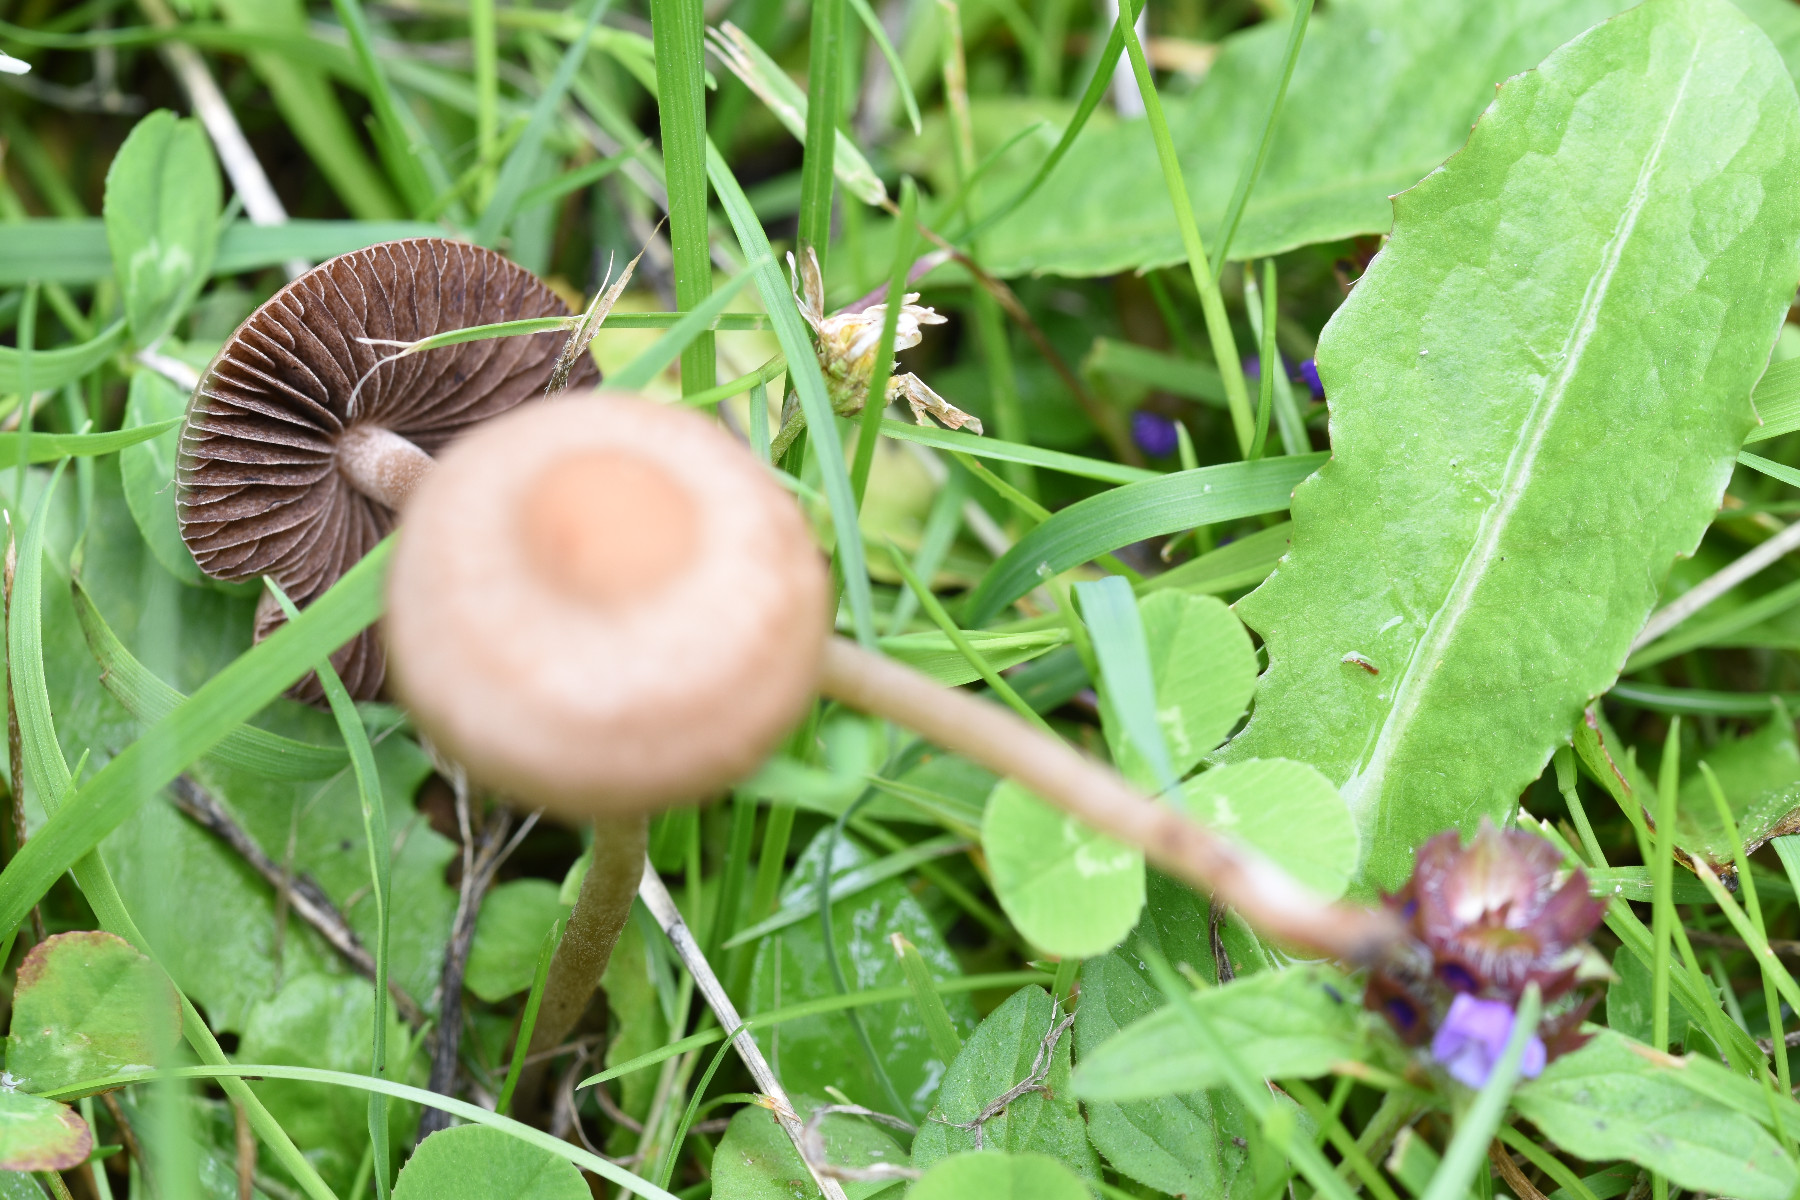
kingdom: Fungi
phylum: Basidiomycota
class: Agaricomycetes
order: Agaricales
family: Bolbitiaceae
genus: Panaeolina
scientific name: Panaeolina foenisecii
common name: høslætsvamp
